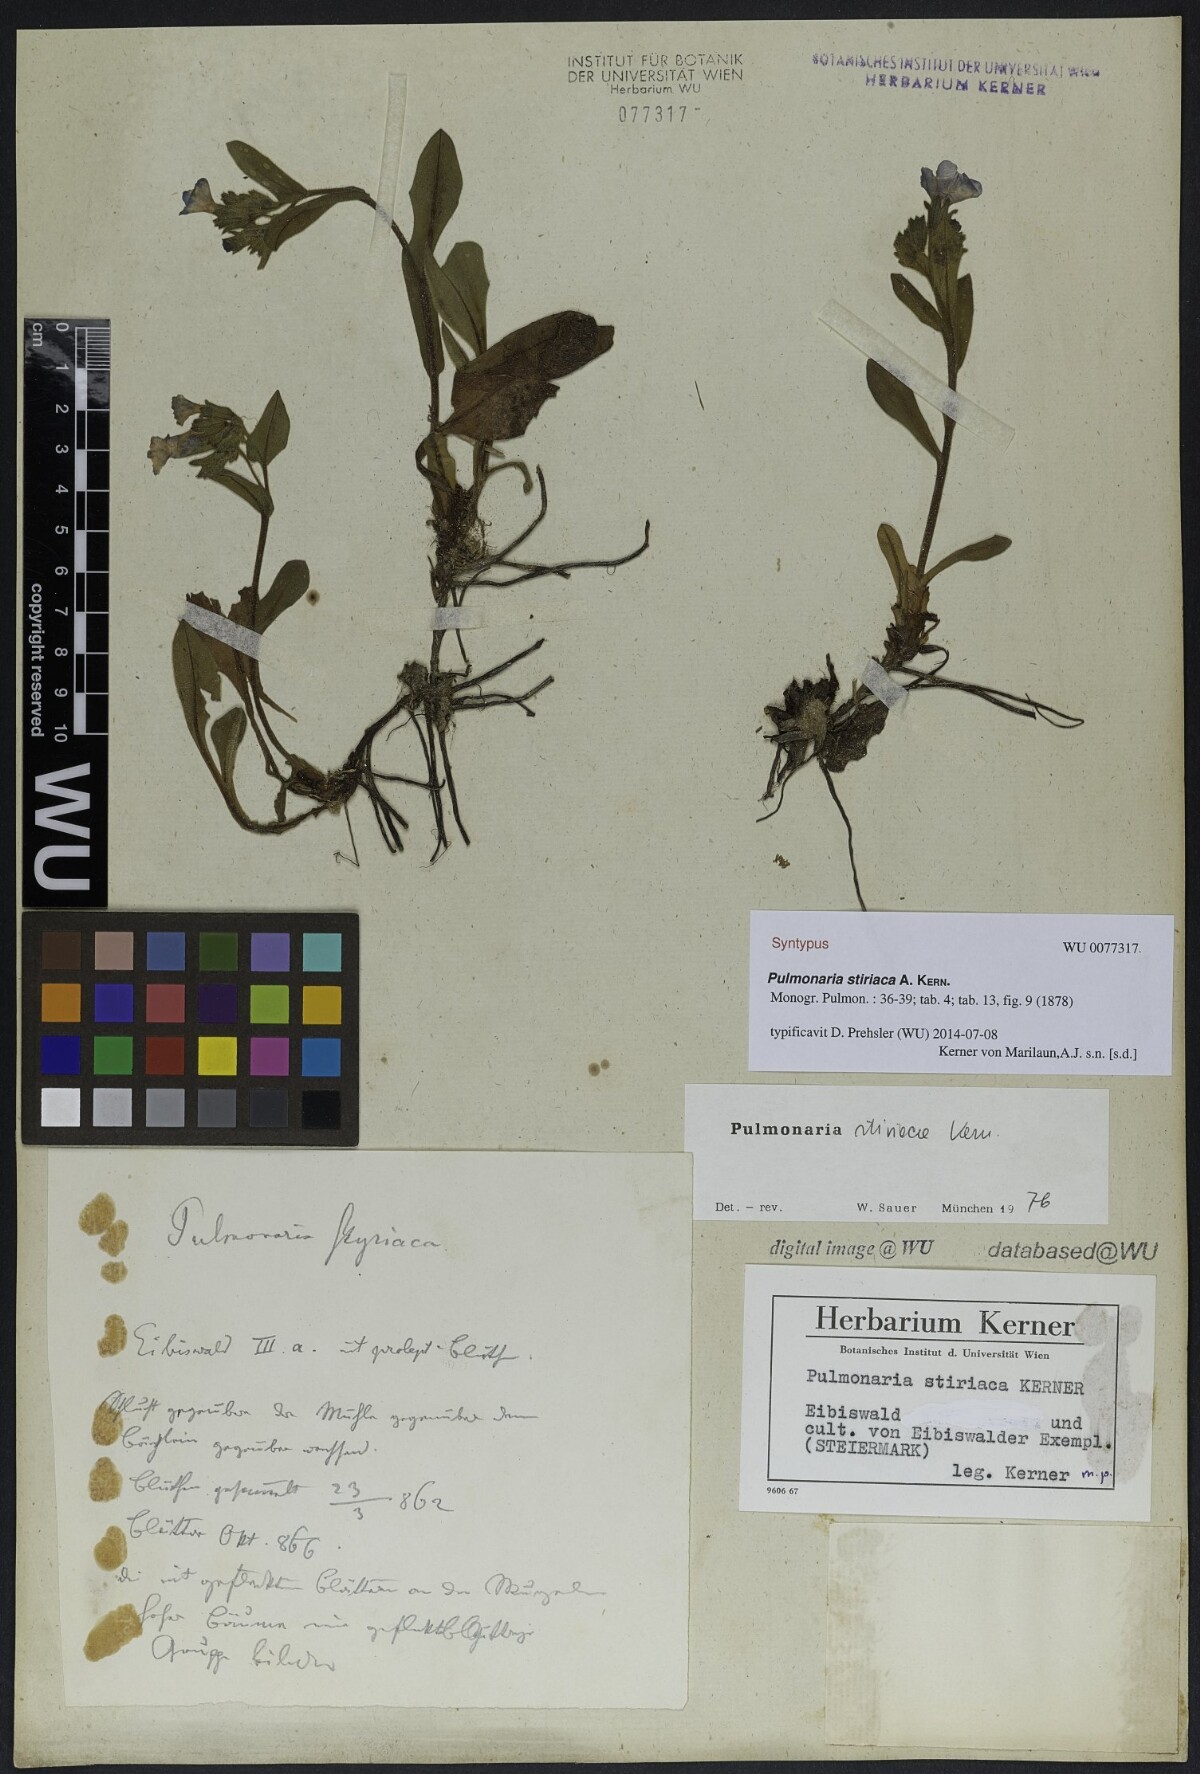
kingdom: Plantae
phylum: Tracheophyta
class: Magnoliopsida
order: Boraginales
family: Boraginaceae
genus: Pulmonaria
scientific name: Pulmonaria stiriaca
